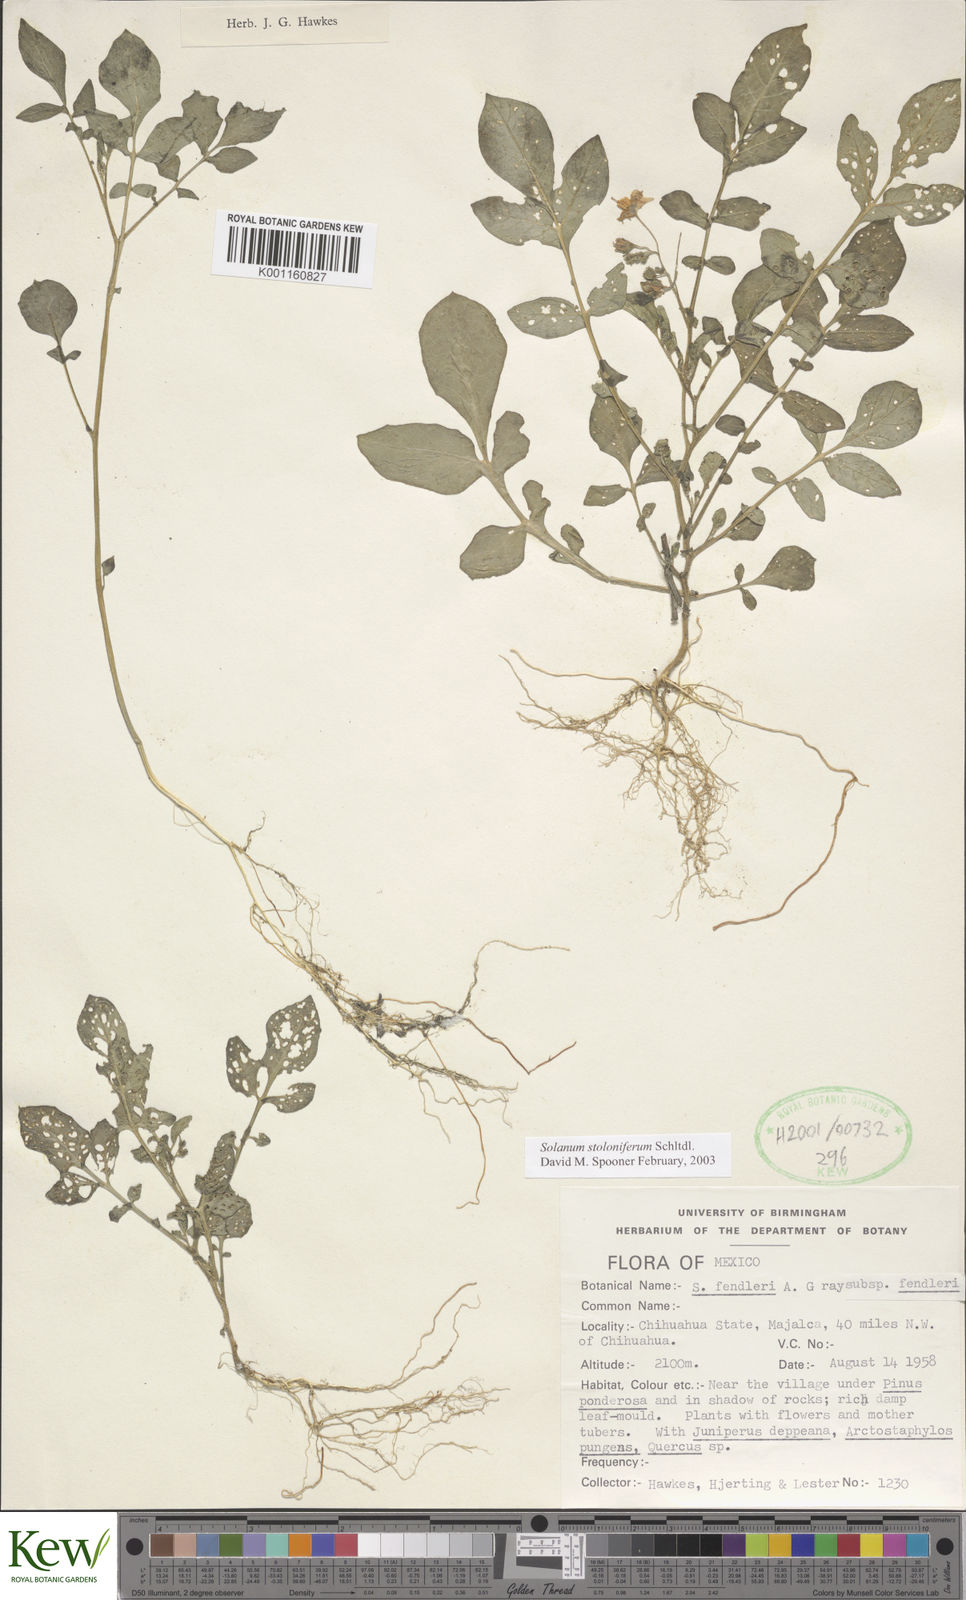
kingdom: Plantae
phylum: Tracheophyta
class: Magnoliopsida
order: Solanales
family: Solanaceae
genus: Solanum
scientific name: Solanum stoloniferum
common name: Fendler's nighshade
